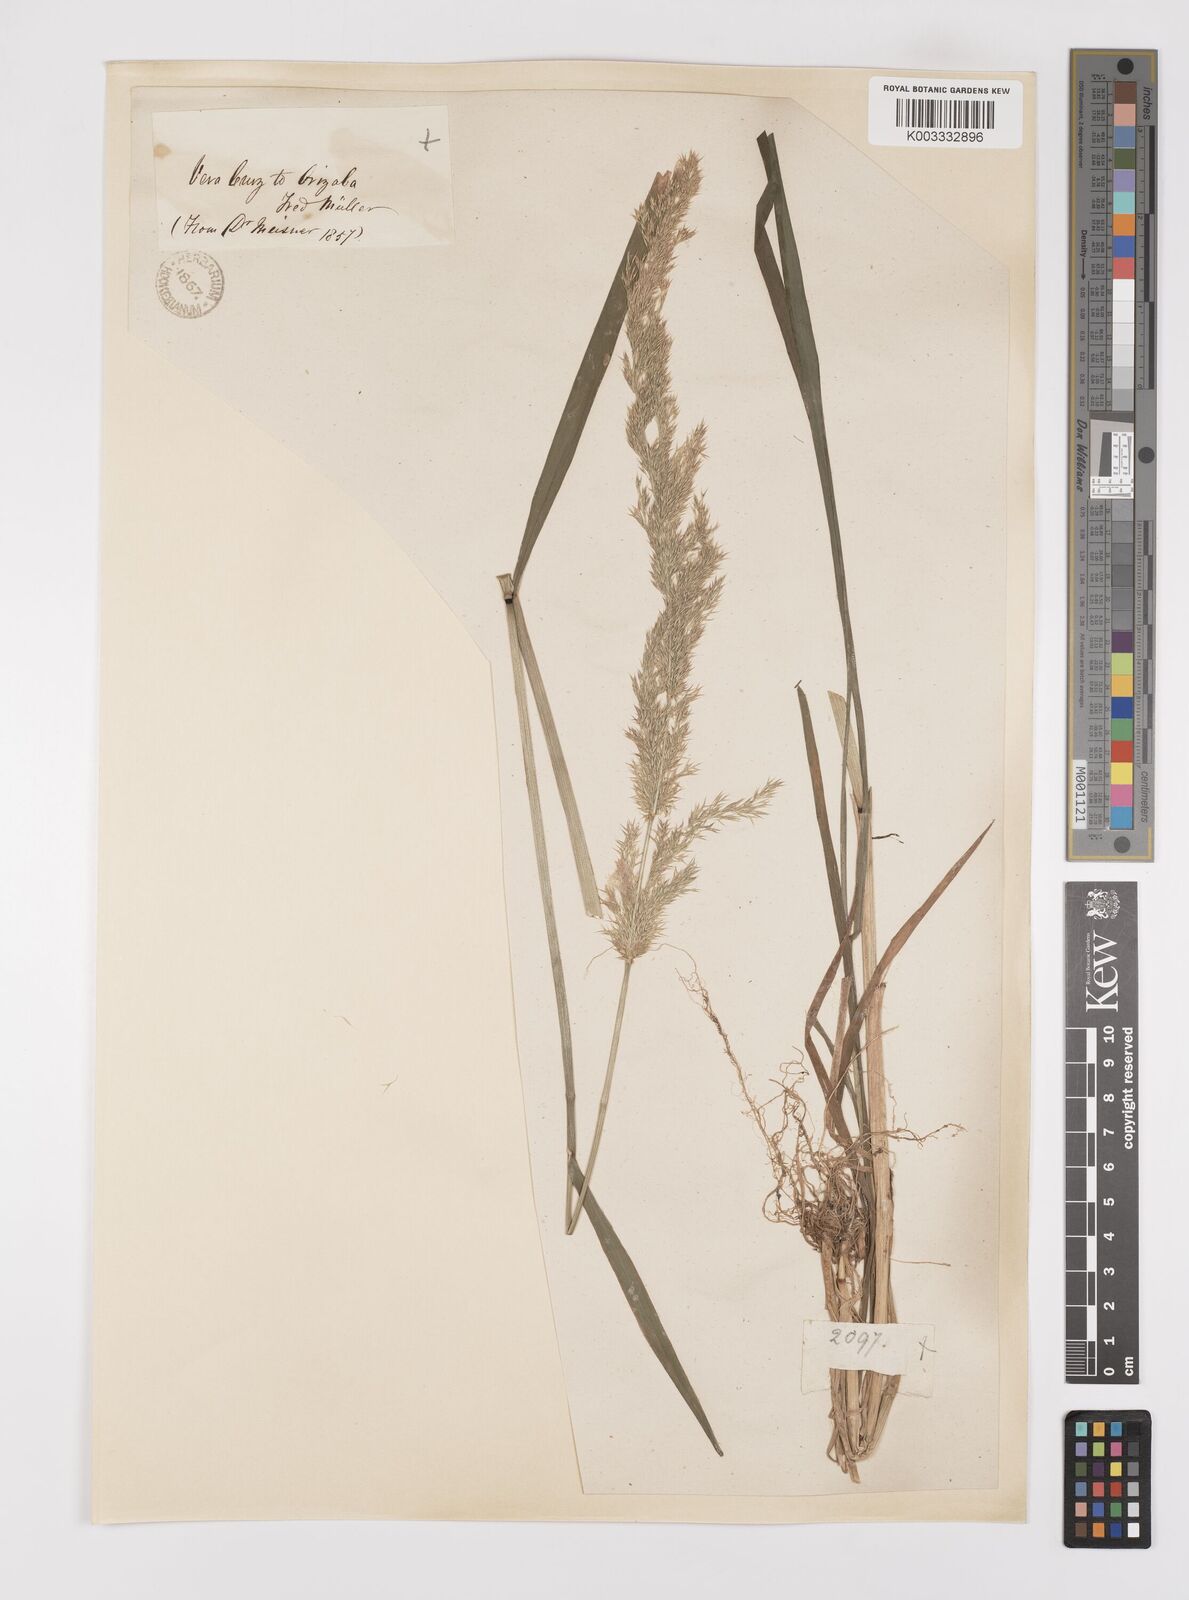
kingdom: Plantae
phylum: Tracheophyta
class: Liliopsida
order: Poales
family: Poaceae
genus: Polypogon
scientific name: Polypogon elongatus
